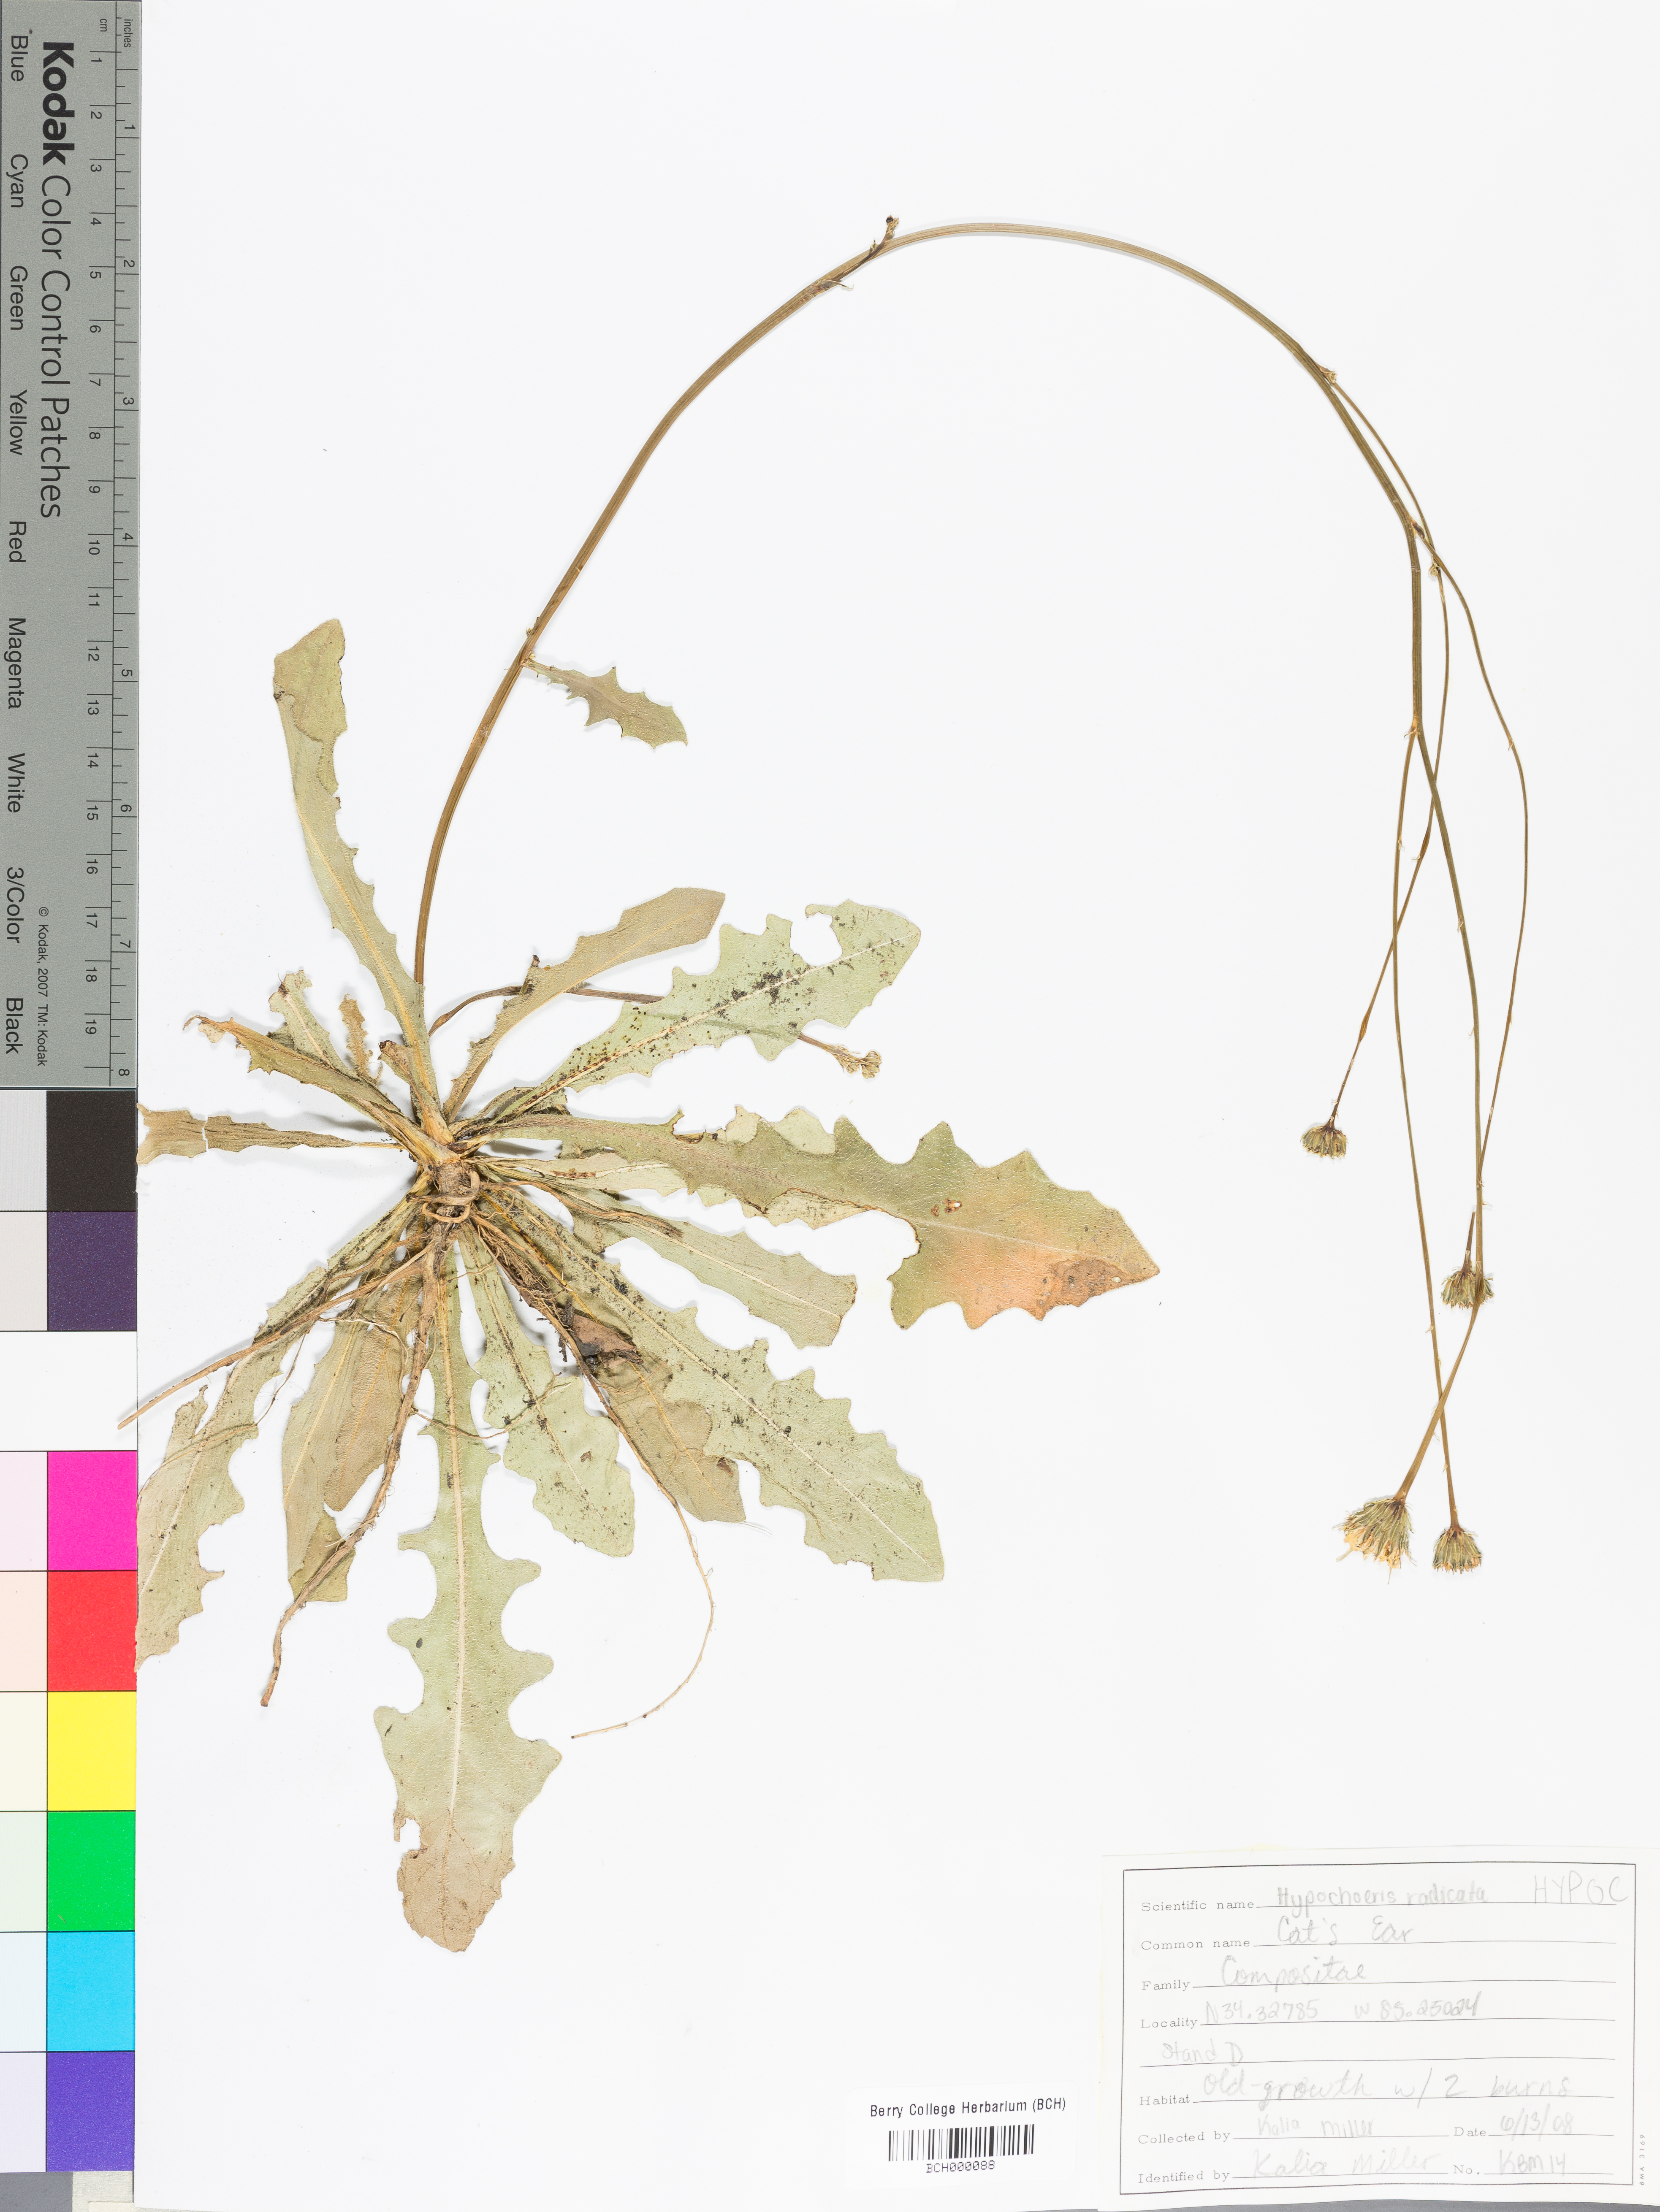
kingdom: Plantae
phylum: Tracheophyta
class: Magnoliopsida
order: Asterales
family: Asteraceae
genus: Hypochaeris
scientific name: Hypochaeris
